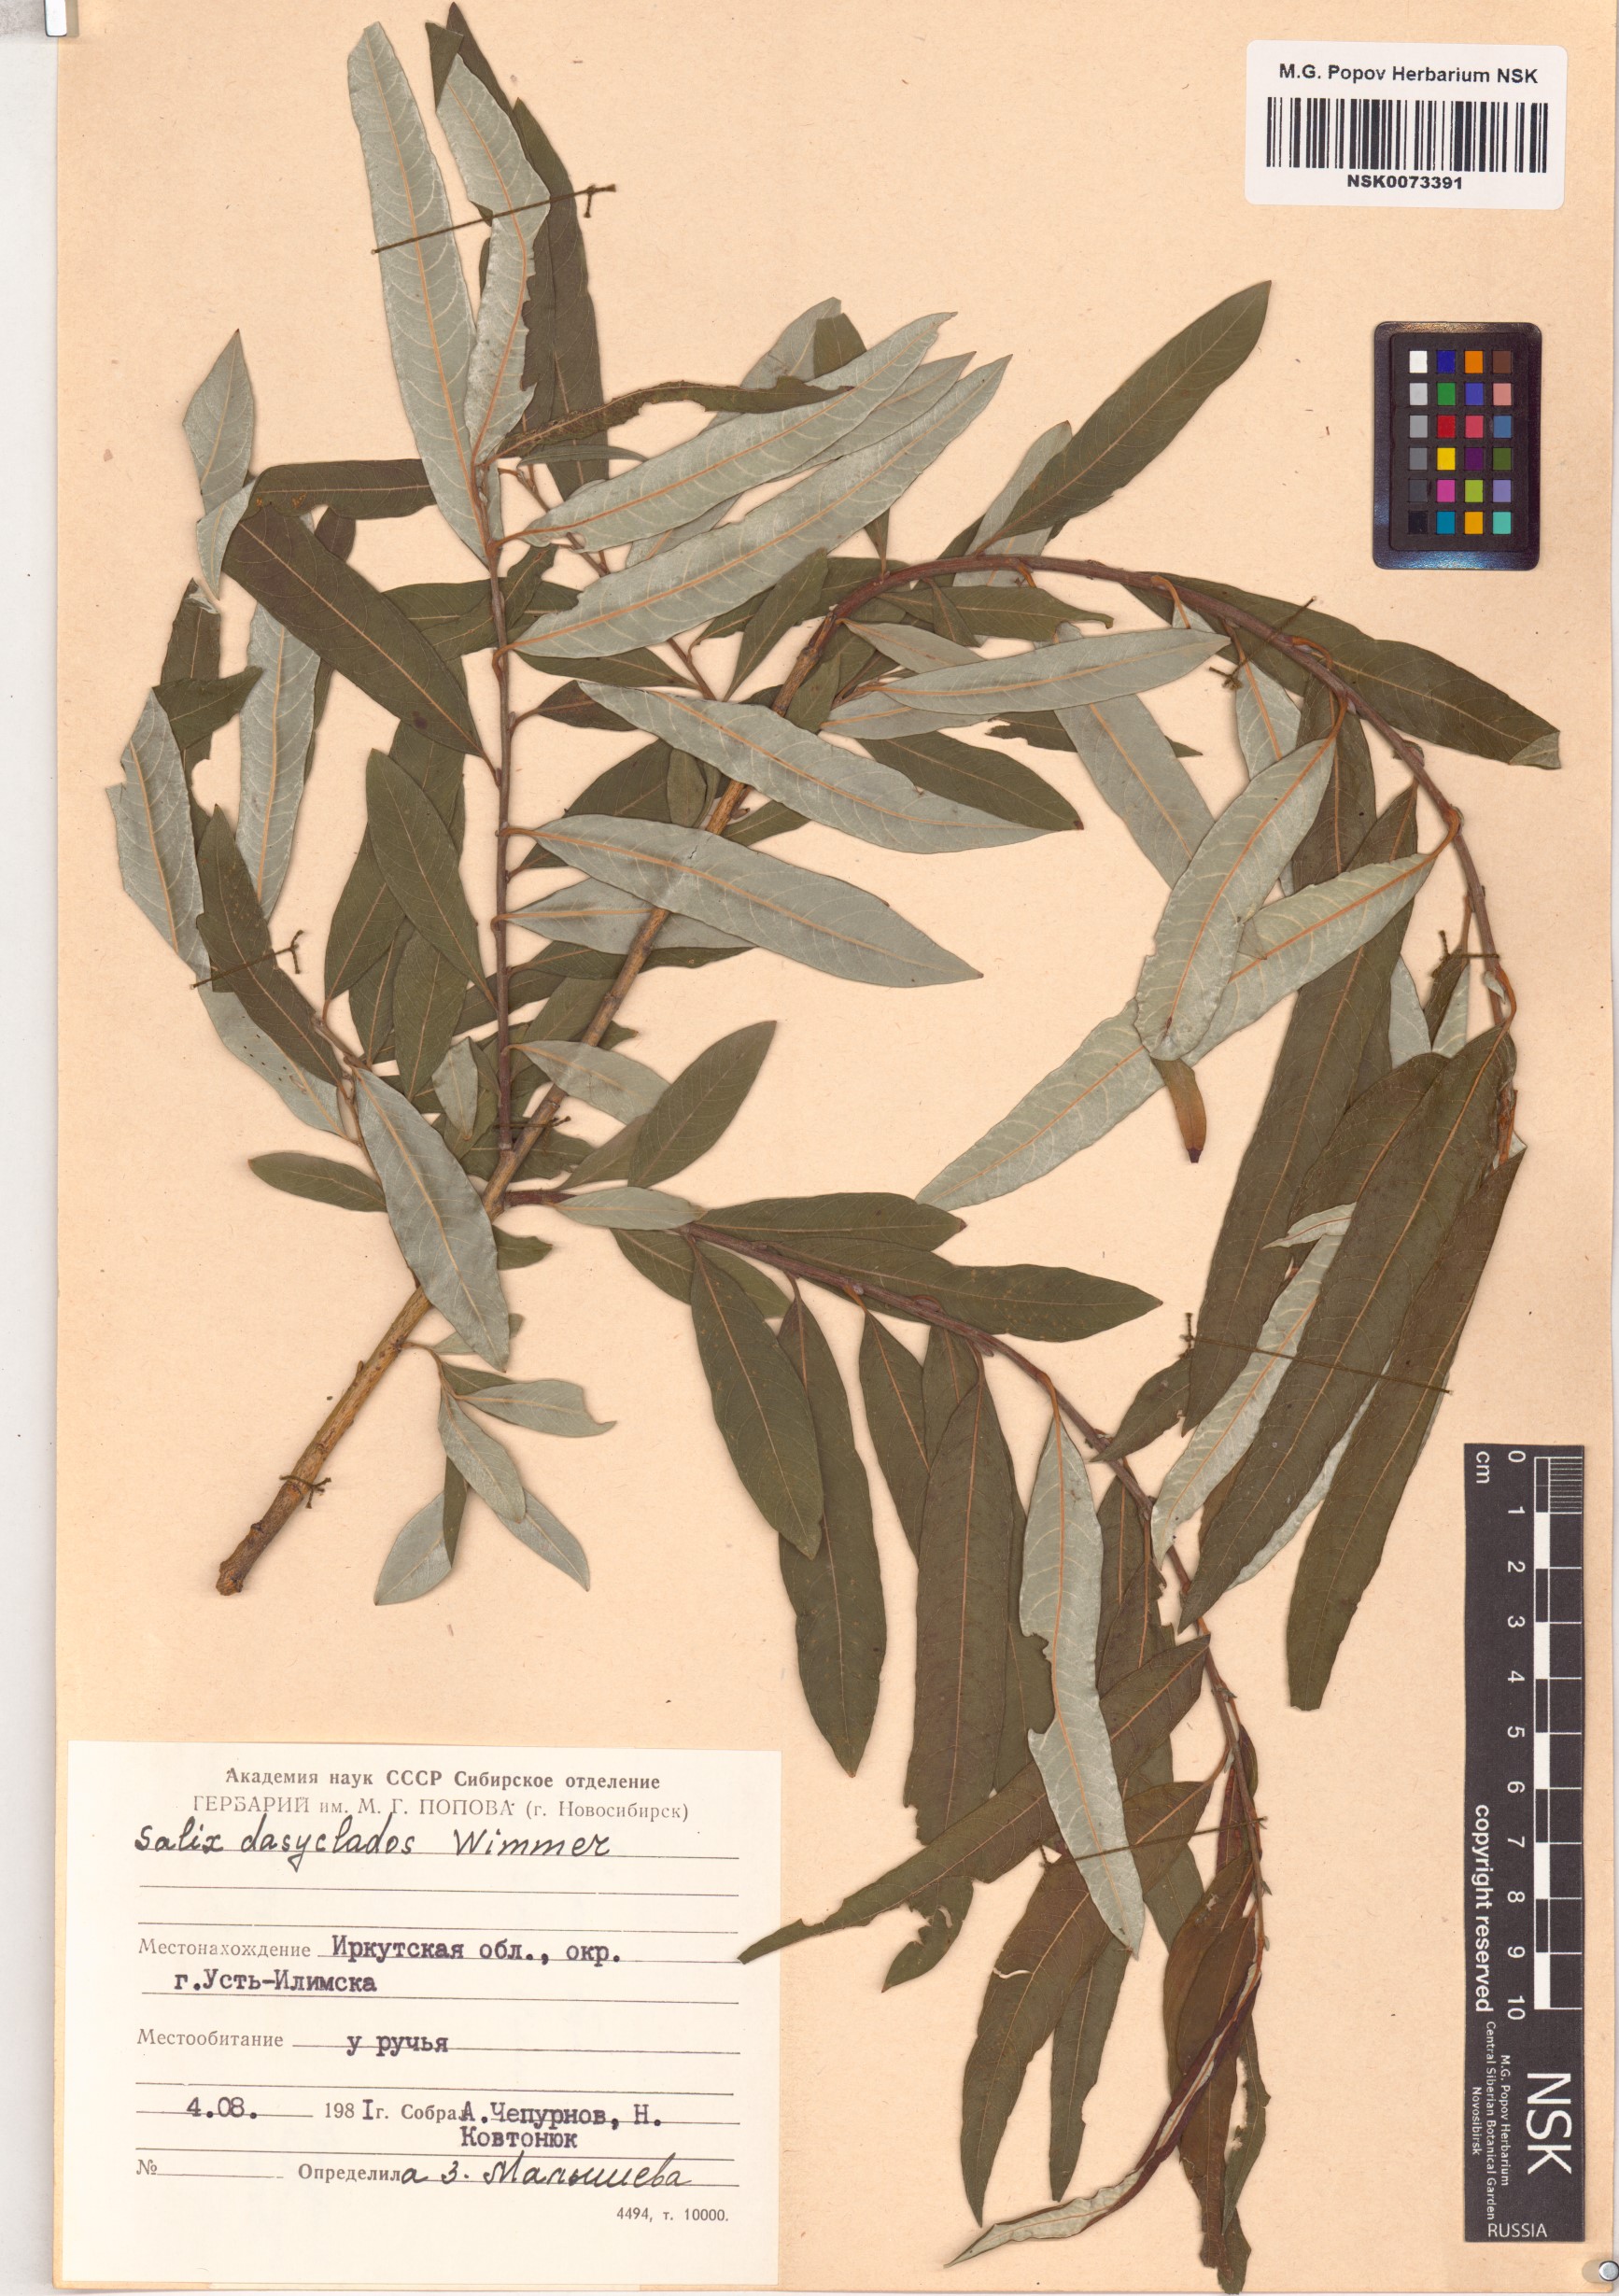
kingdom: Plantae
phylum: Tracheophyta
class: Magnoliopsida
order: Malpighiales
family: Salicaceae
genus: Salix
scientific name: Salix gmelinii
